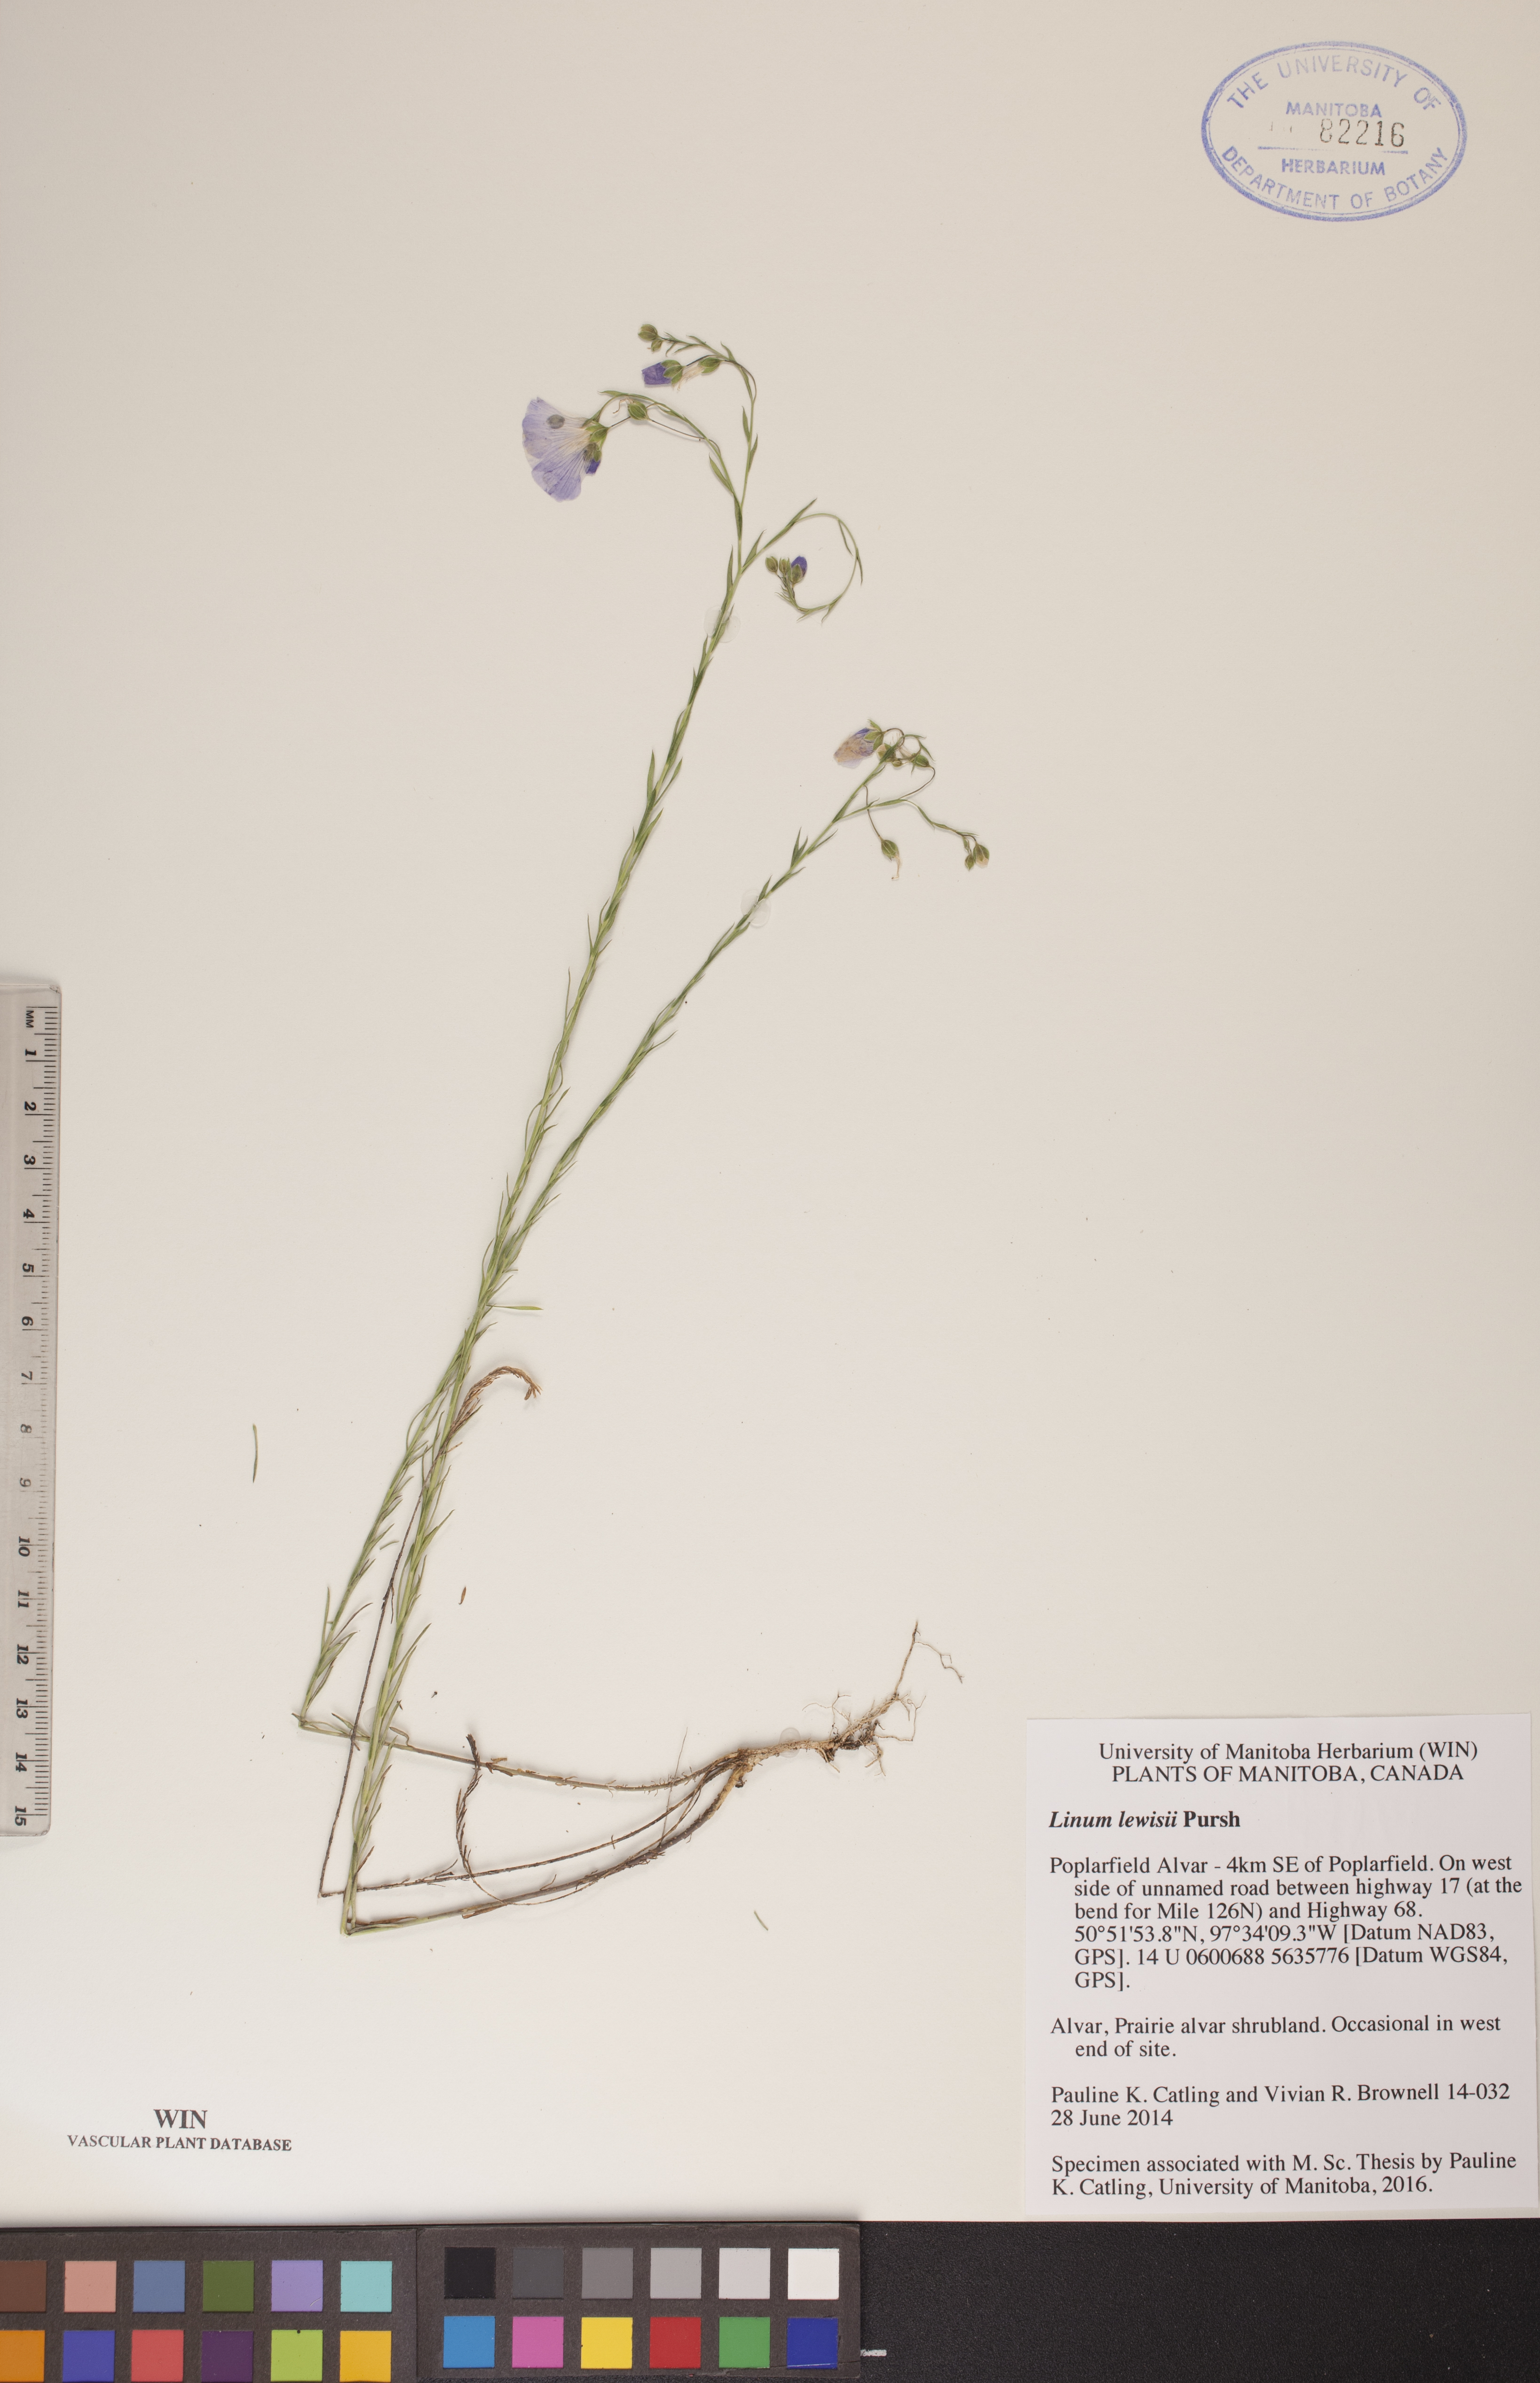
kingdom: Plantae
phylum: Tracheophyta
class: Magnoliopsida
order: Malpighiales
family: Linaceae
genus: Linum
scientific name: Linum lewisii
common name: Prairie flax
